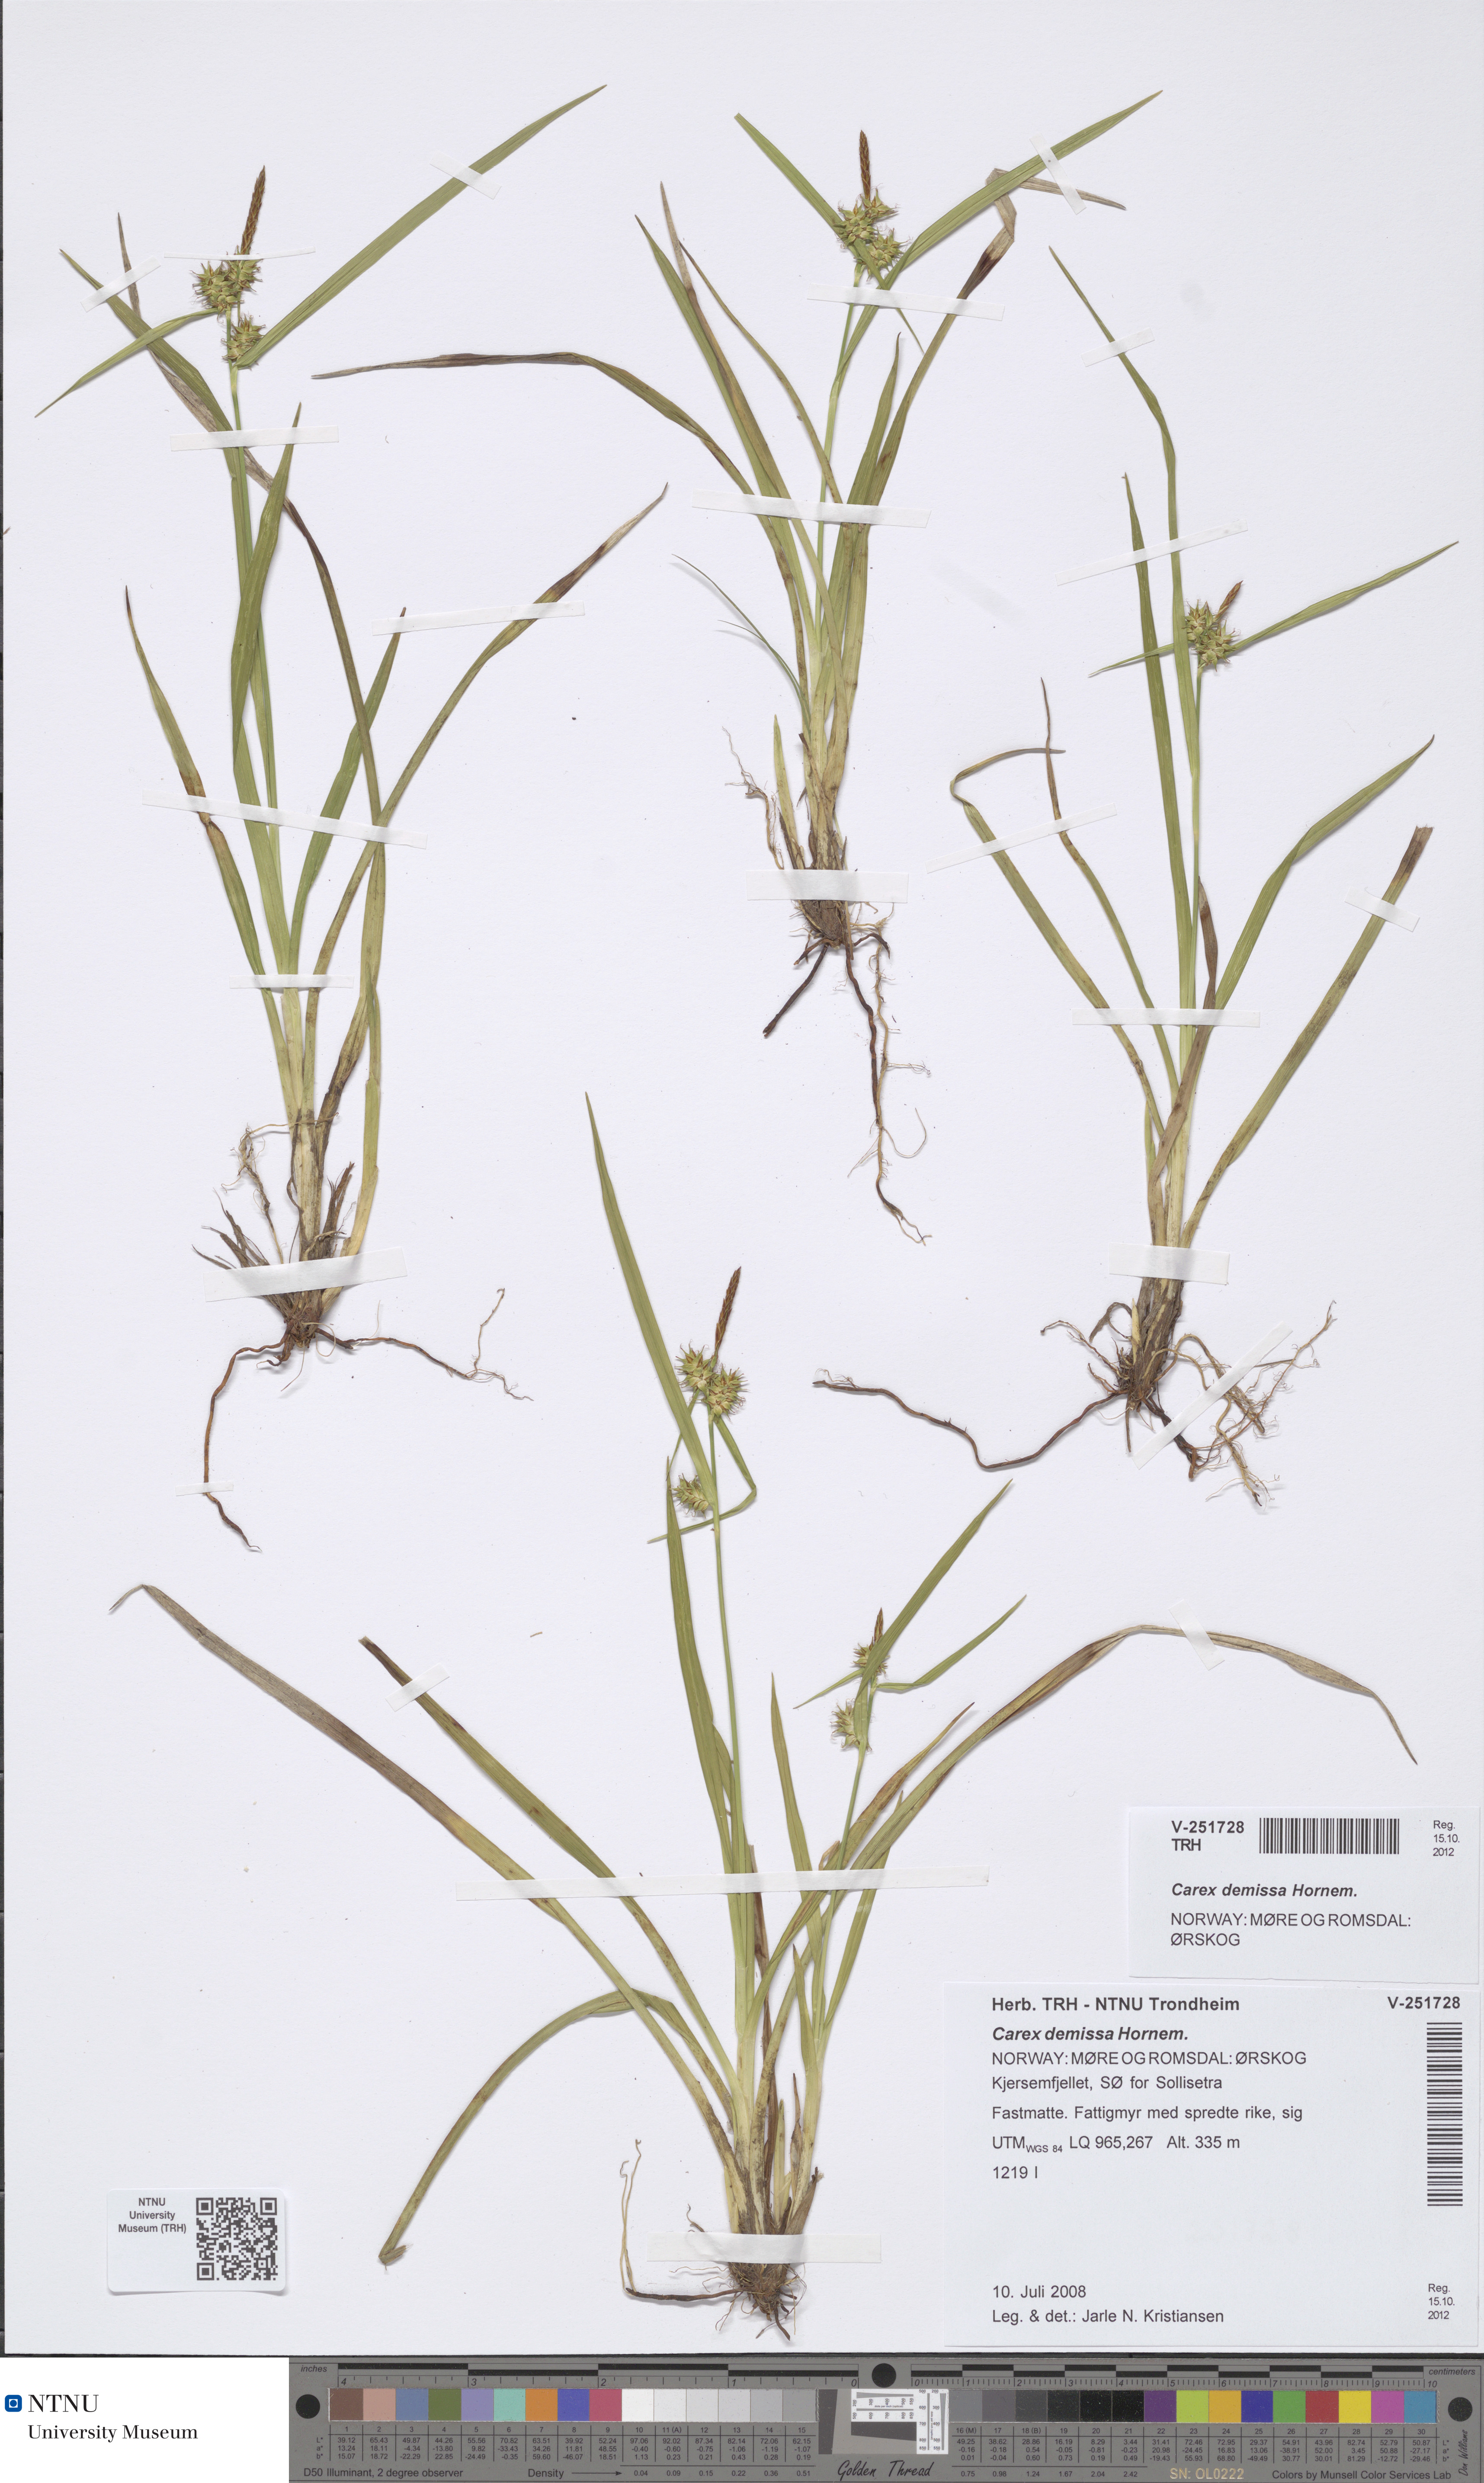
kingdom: Plantae
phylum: Tracheophyta
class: Liliopsida
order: Poales
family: Cyperaceae
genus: Carex
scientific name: Carex demissa
